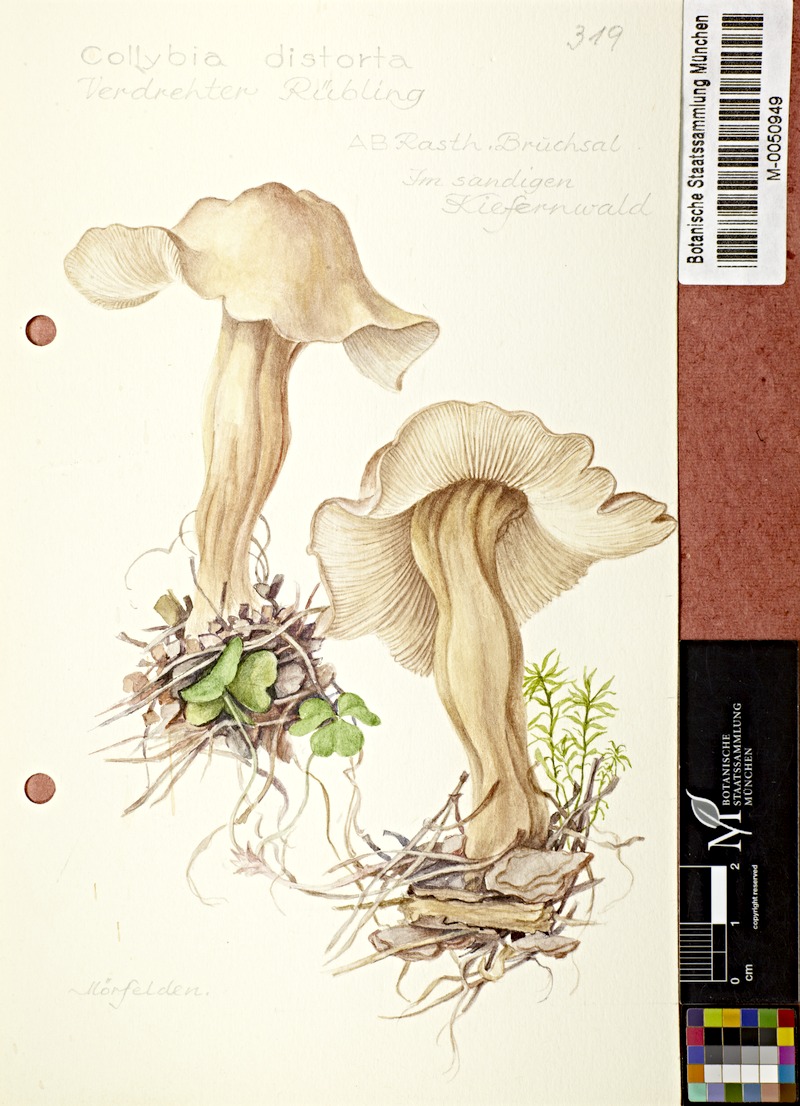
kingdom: Fungi
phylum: Basidiomycota
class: Agaricomycetes
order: Agaricales
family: Omphalotaceae
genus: Rhodocollybia
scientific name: Rhodocollybia prolixa
